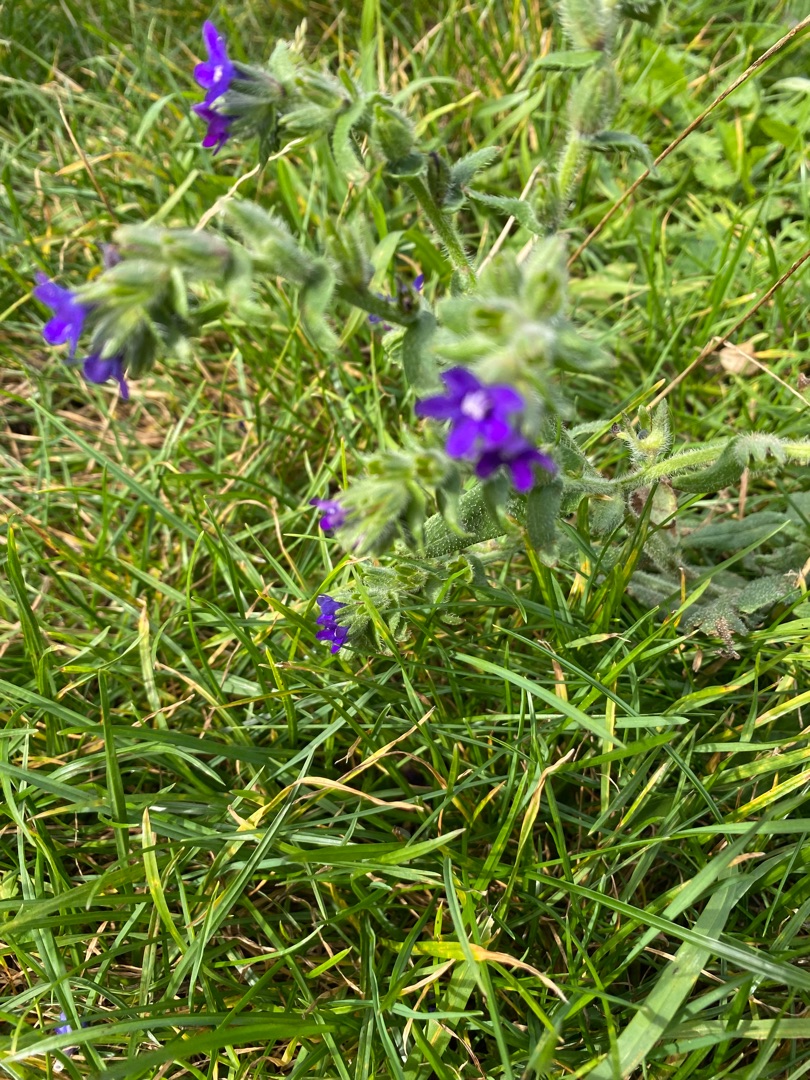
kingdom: Plantae
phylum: Tracheophyta
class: Magnoliopsida
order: Boraginales
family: Boraginaceae
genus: Anchusa
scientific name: Anchusa officinalis
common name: Læge-oksetunge
